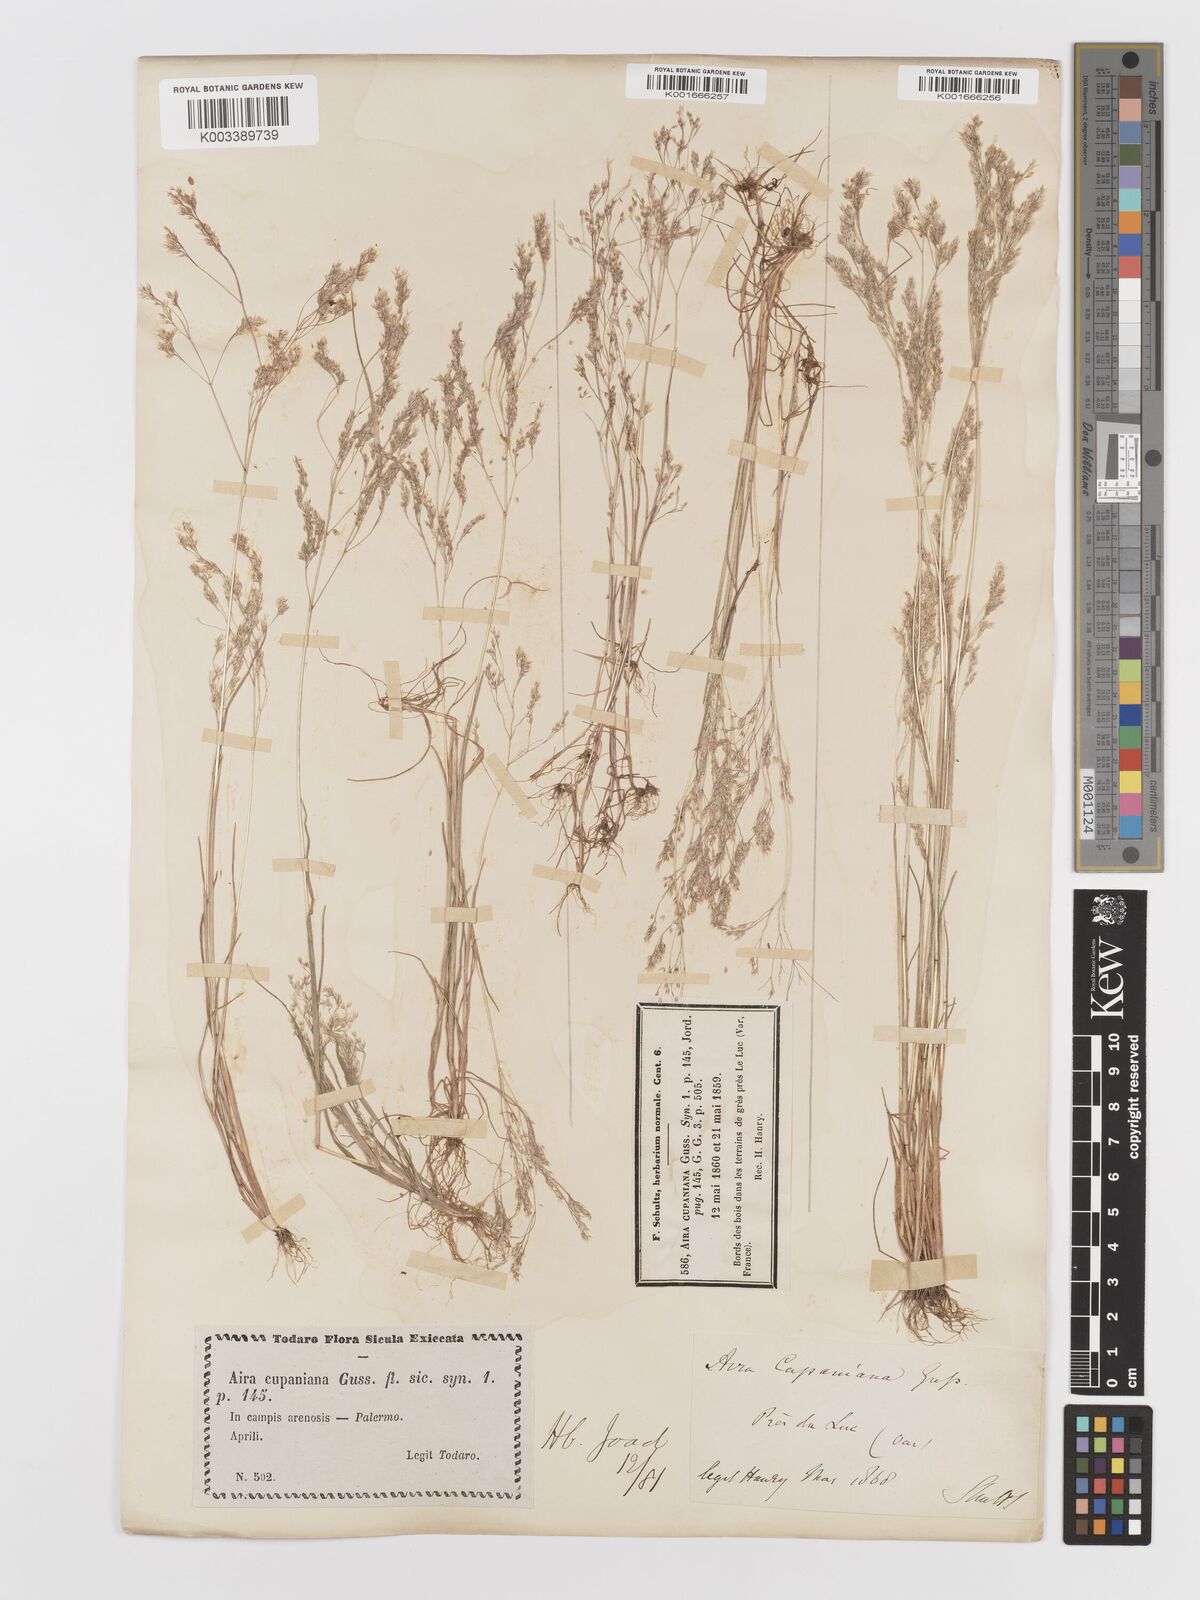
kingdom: Plantae
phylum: Tracheophyta
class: Liliopsida
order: Poales
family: Poaceae
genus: Aira
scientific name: Aira cupaniana
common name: Silver hairgrass
